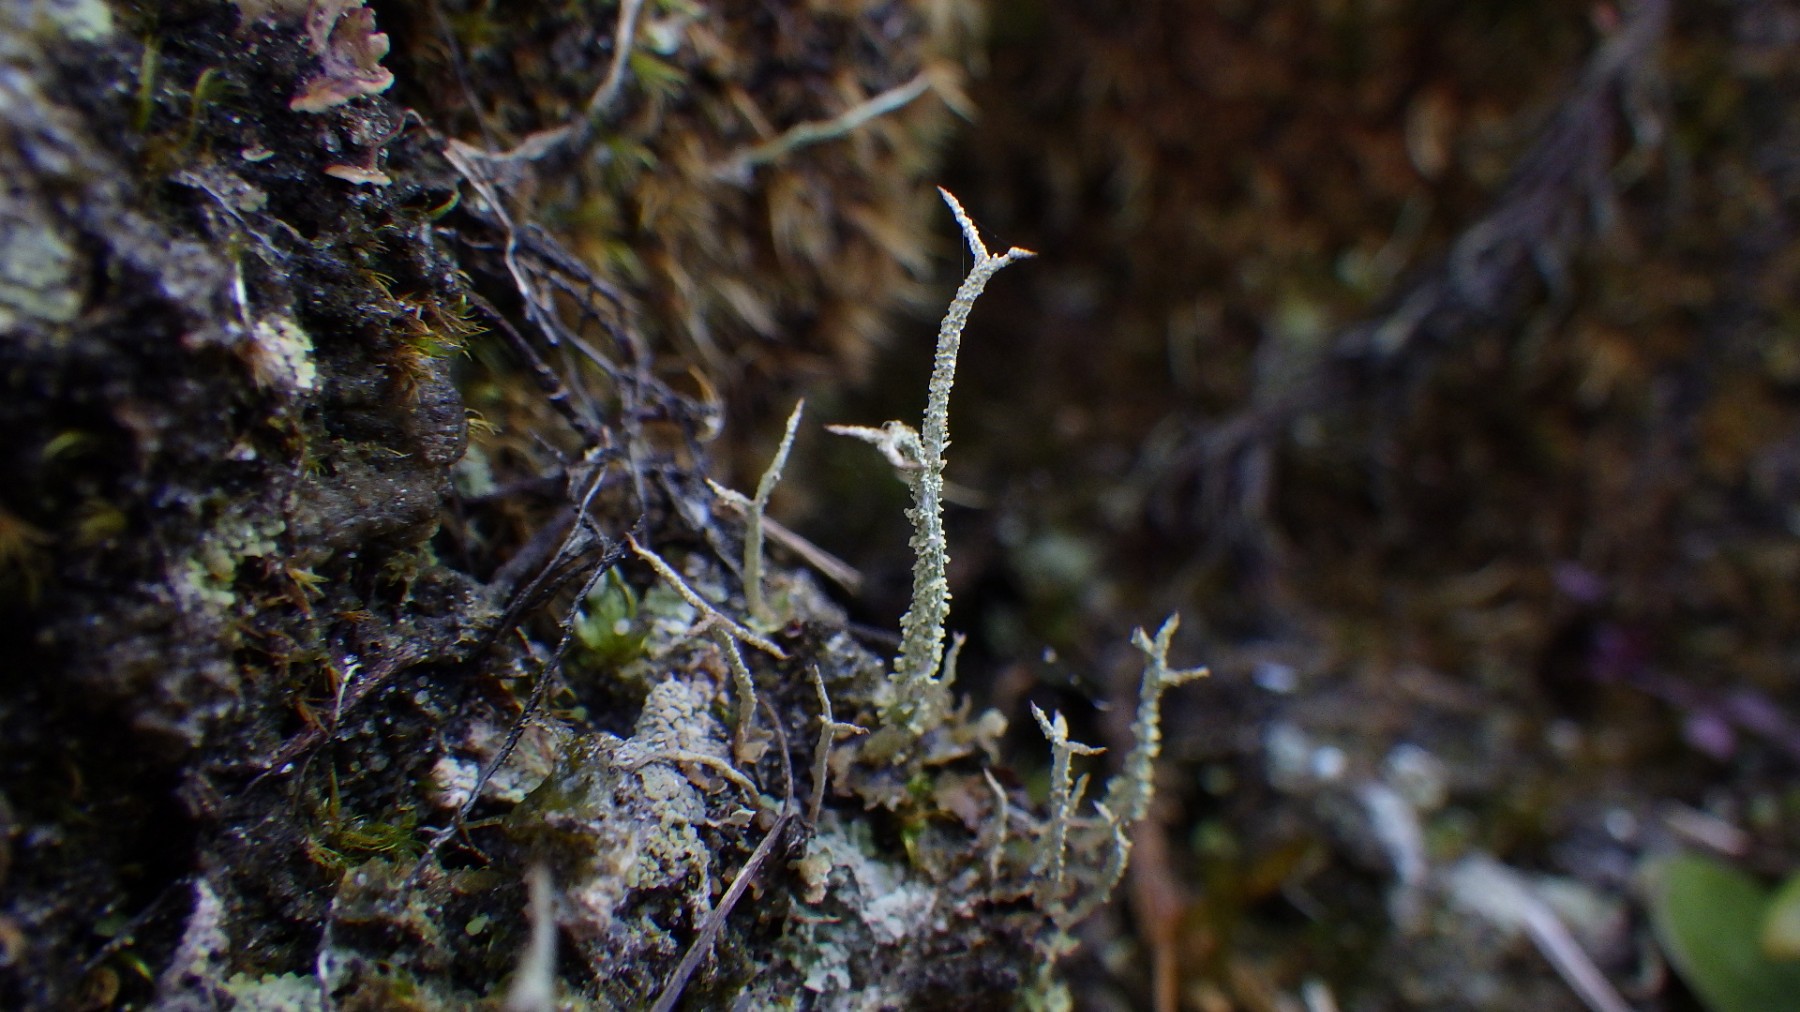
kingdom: Fungi
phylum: Ascomycota
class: Lecanoromycetes
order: Lecanorales
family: Cladoniaceae
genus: Cladonia
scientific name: Cladonia scabriuscula
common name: ru bægerlav
